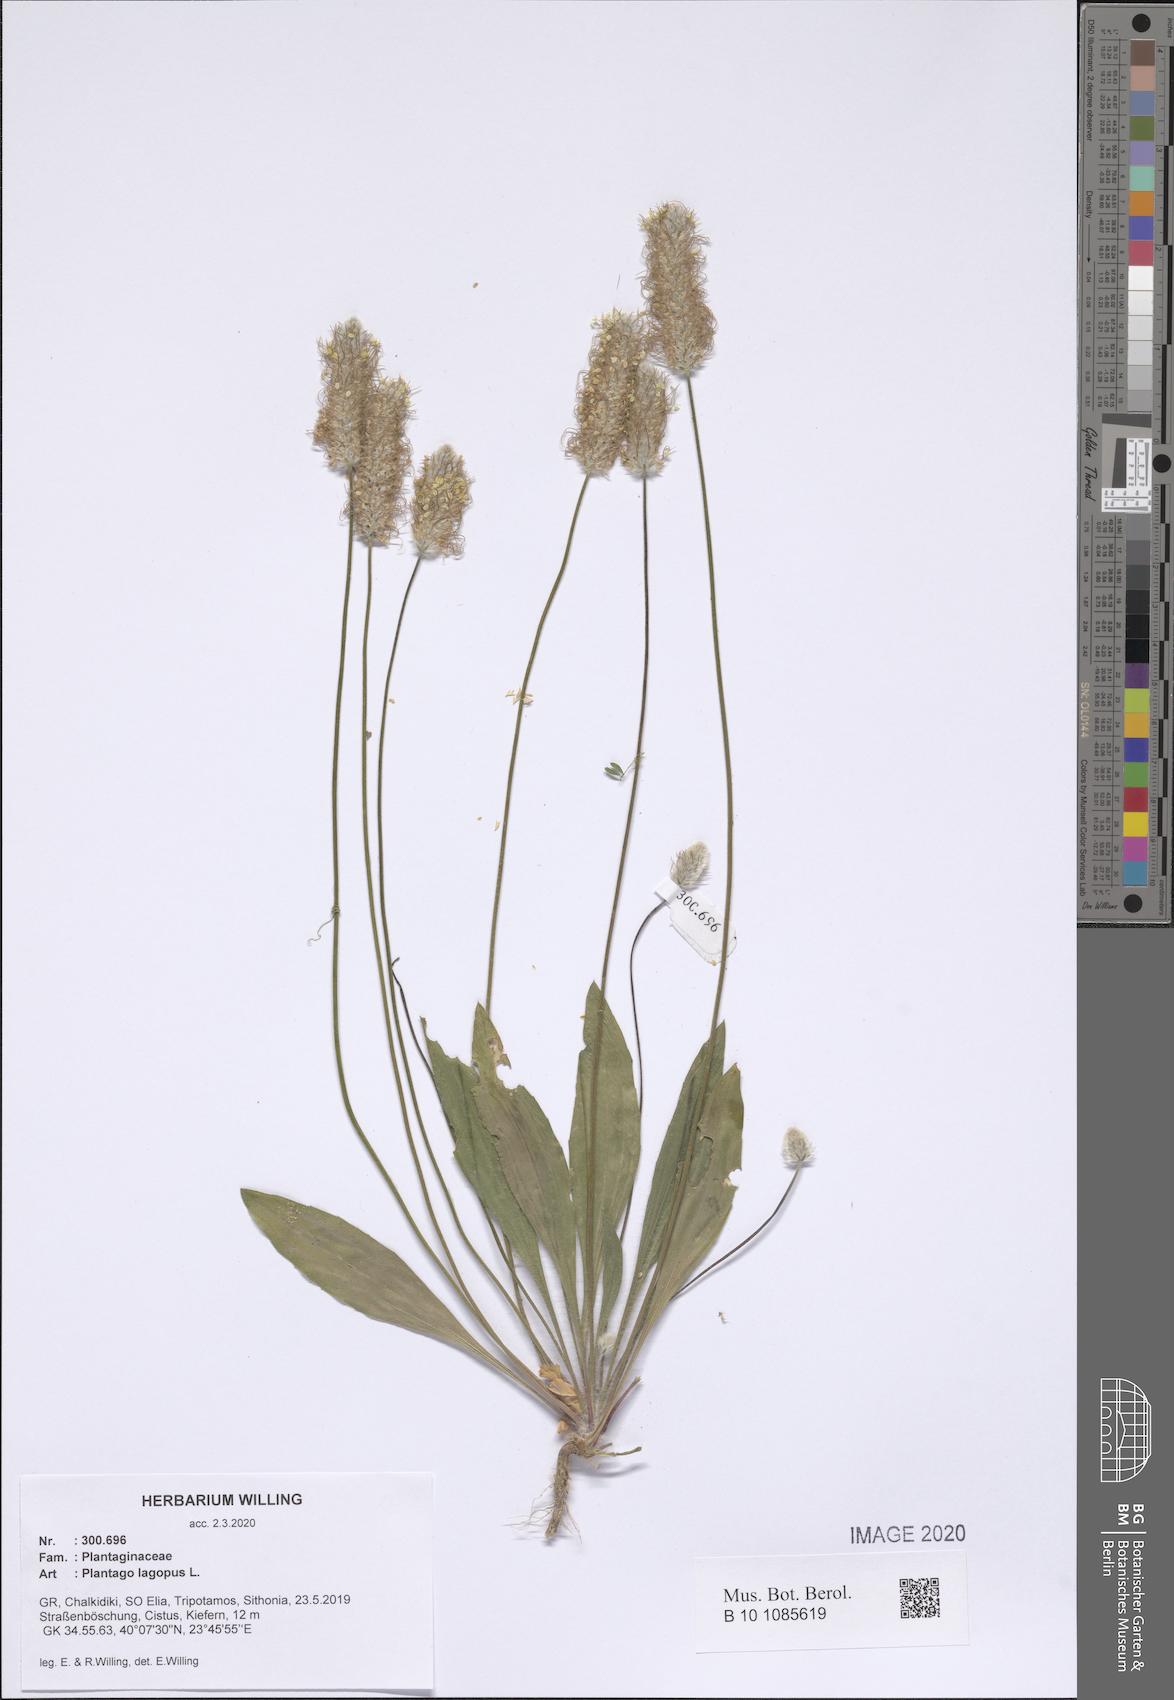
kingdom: Plantae
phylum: Tracheophyta
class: Magnoliopsida
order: Lamiales
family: Plantaginaceae
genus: Plantago
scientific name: Plantago lagopus
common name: Hare-foot plantain
